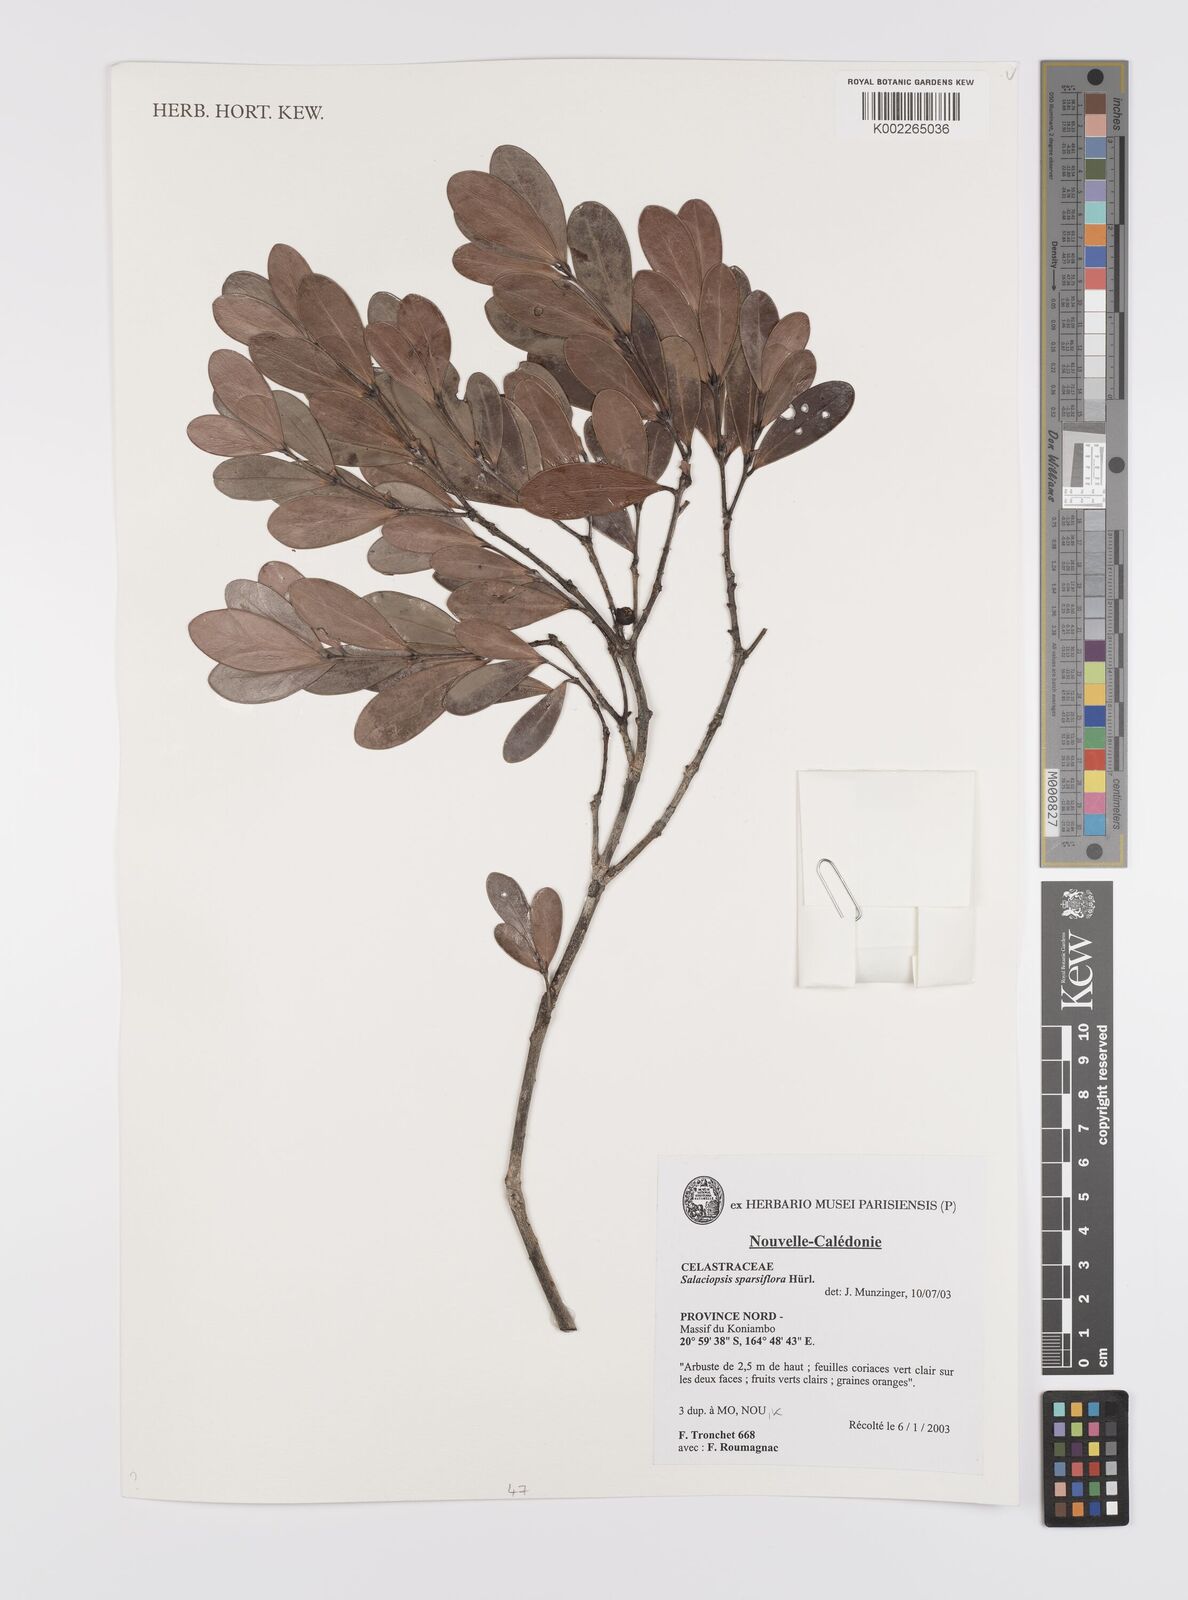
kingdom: Plantae
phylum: Tracheophyta
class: Magnoliopsida
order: Celastrales
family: Celastraceae
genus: Salaciopsis
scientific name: Salaciopsis sparsiflora
